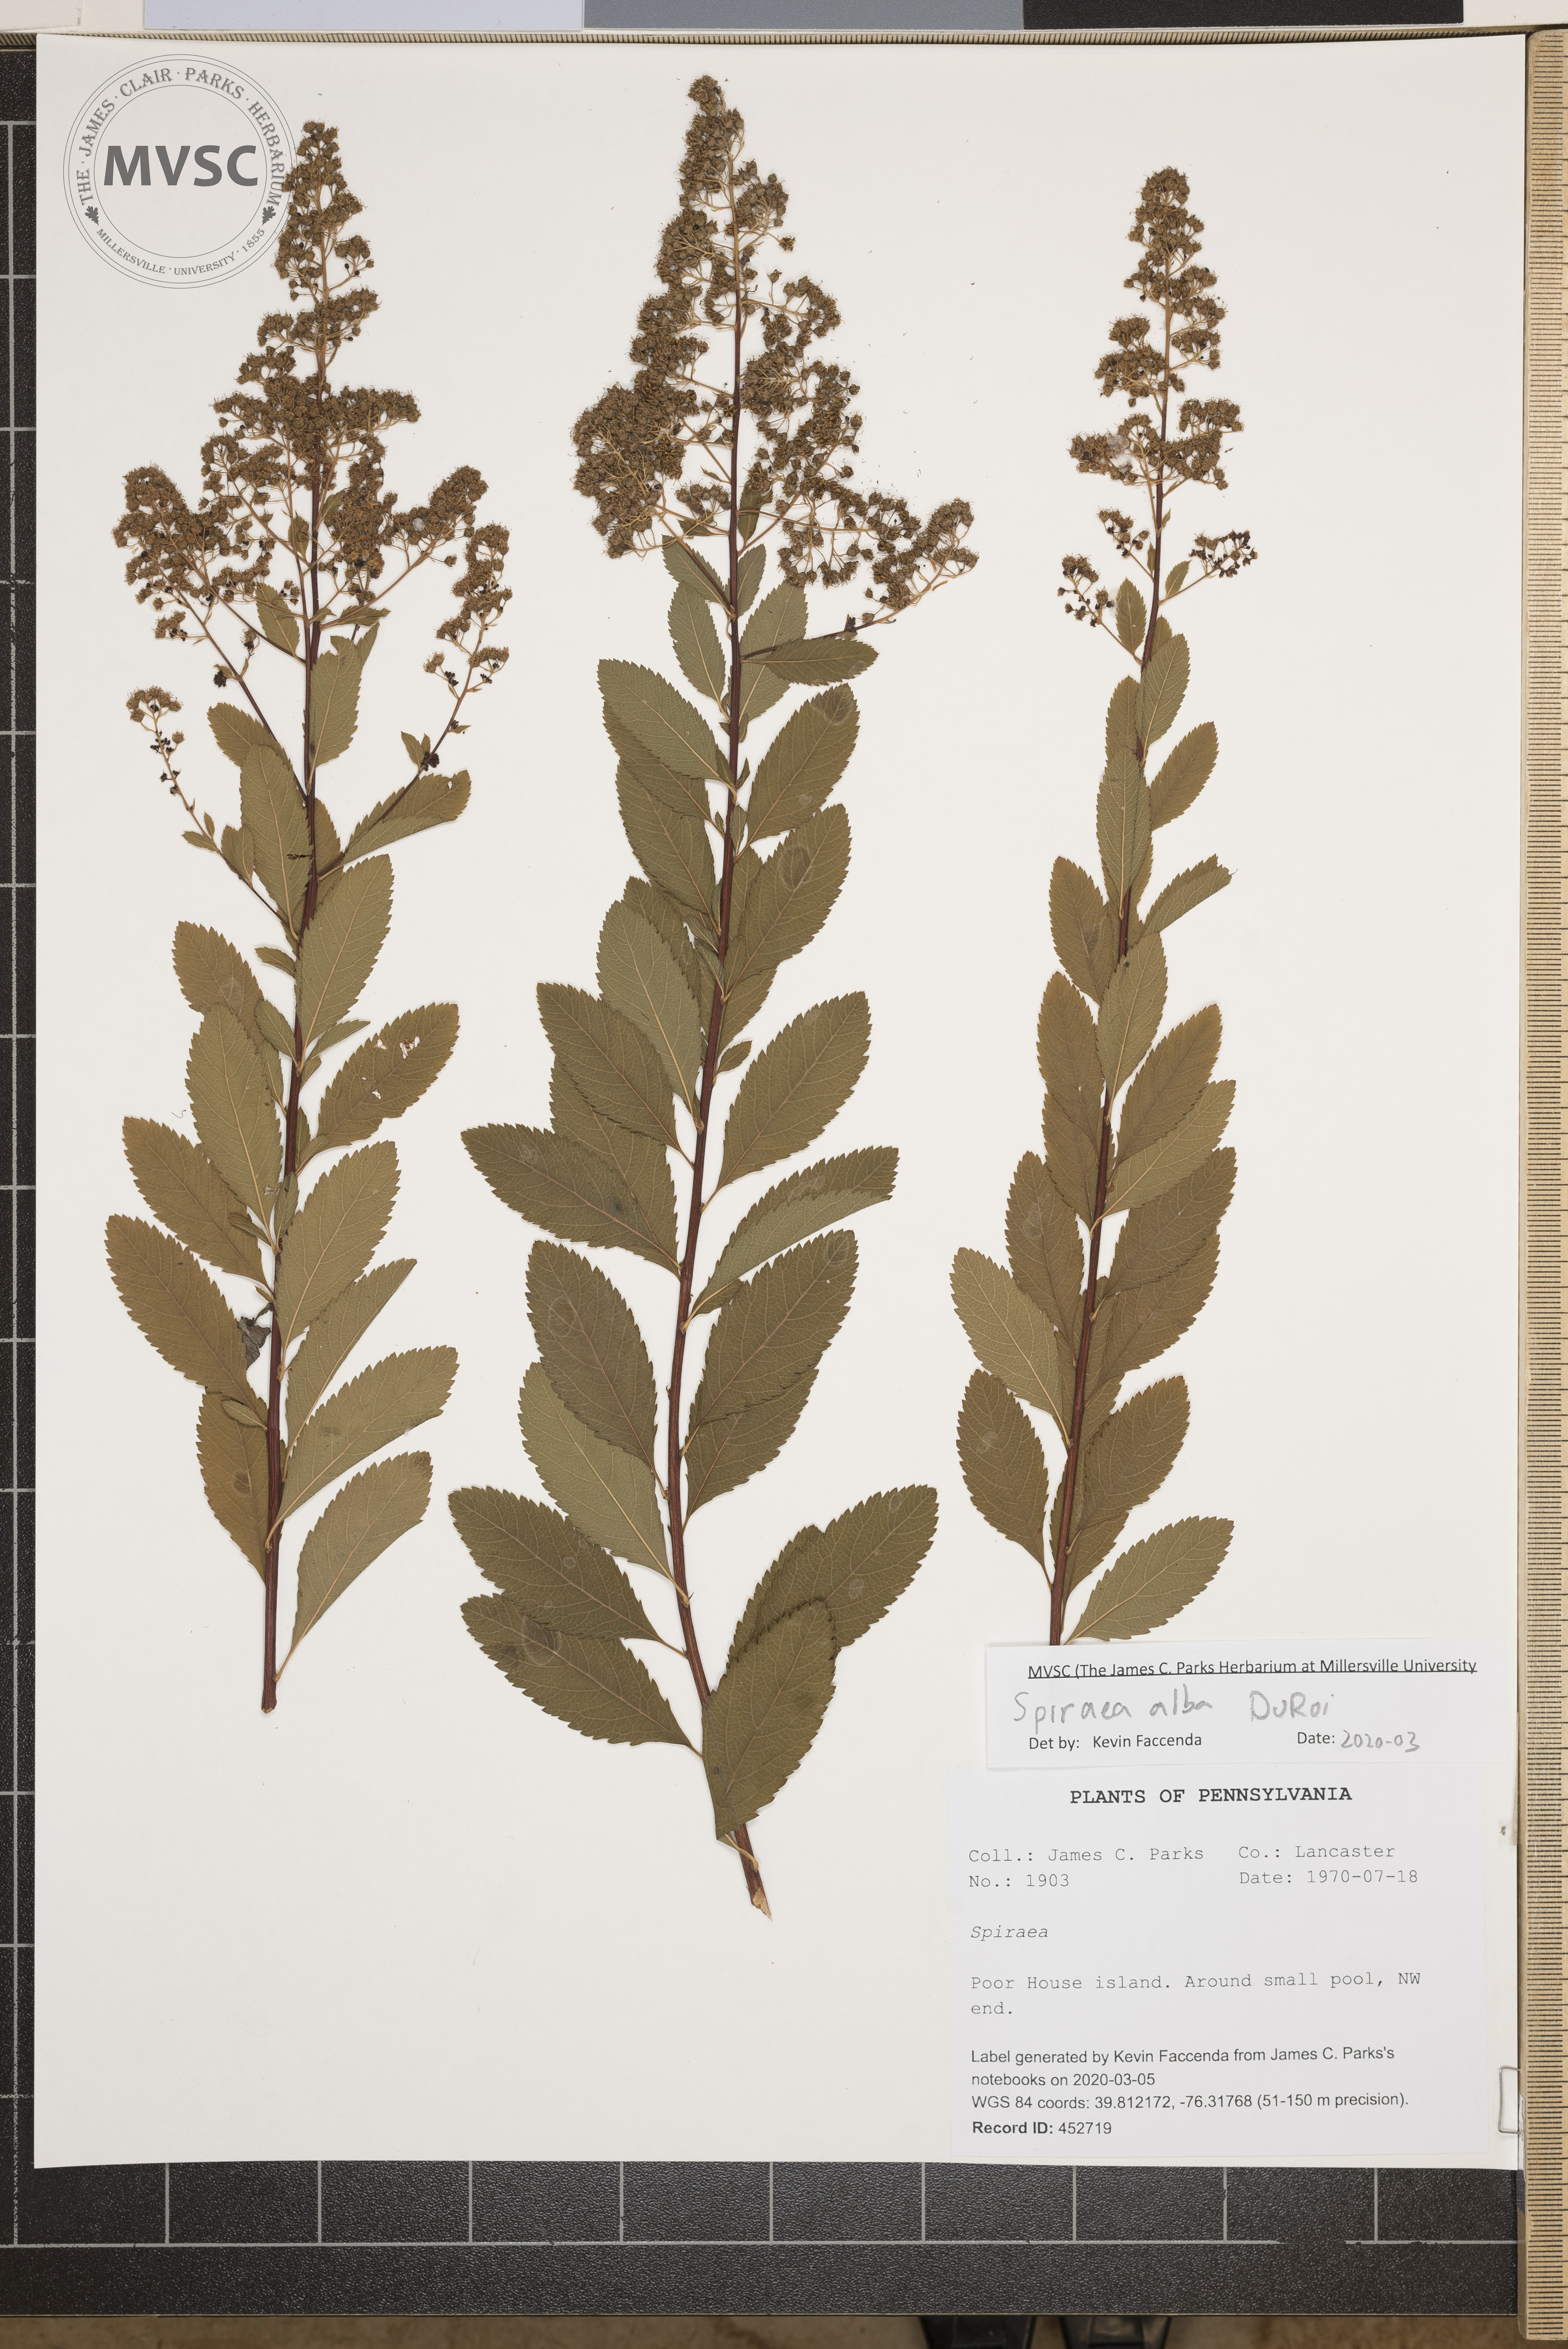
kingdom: Plantae
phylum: Tracheophyta
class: Magnoliopsida
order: Rosales
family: Rosaceae
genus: Spiraea
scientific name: Spiraea alba
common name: Pale bridewort
